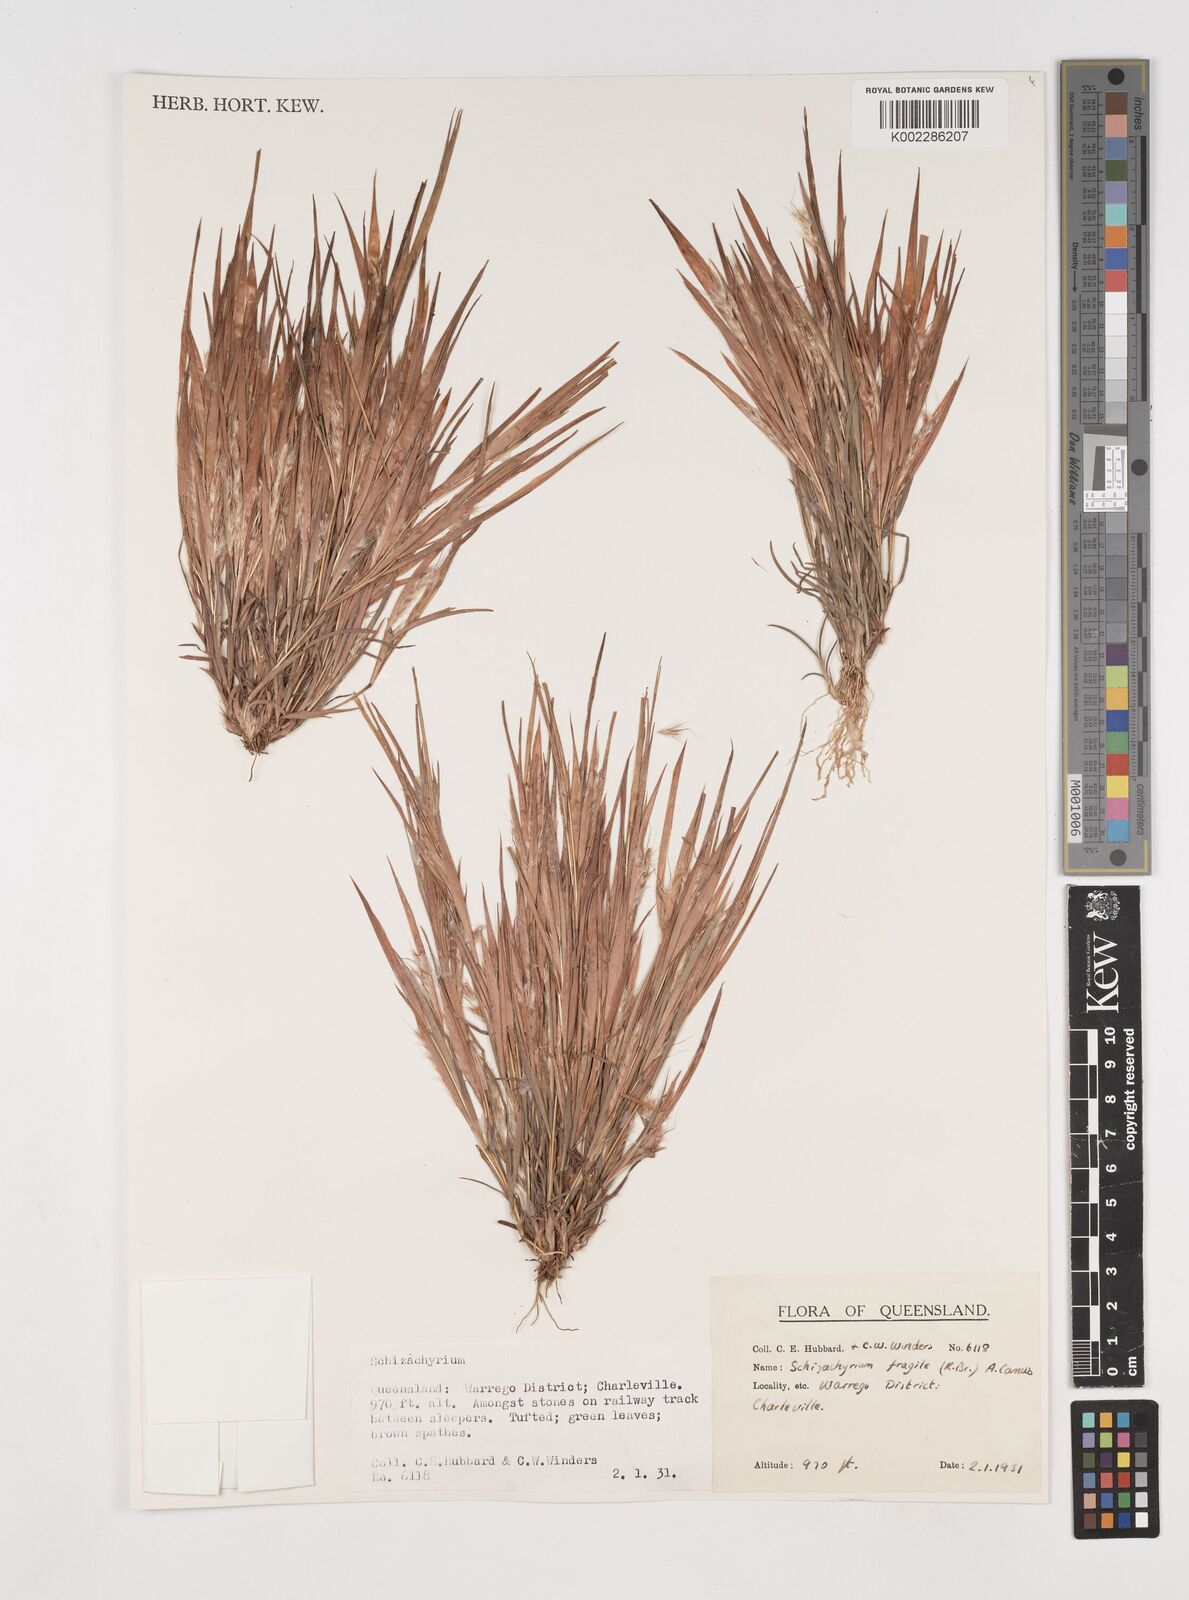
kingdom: Plantae
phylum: Tracheophyta
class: Liliopsida
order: Poales
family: Poaceae
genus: Schizachyrium
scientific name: Schizachyrium fragile
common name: Red spathe grass
